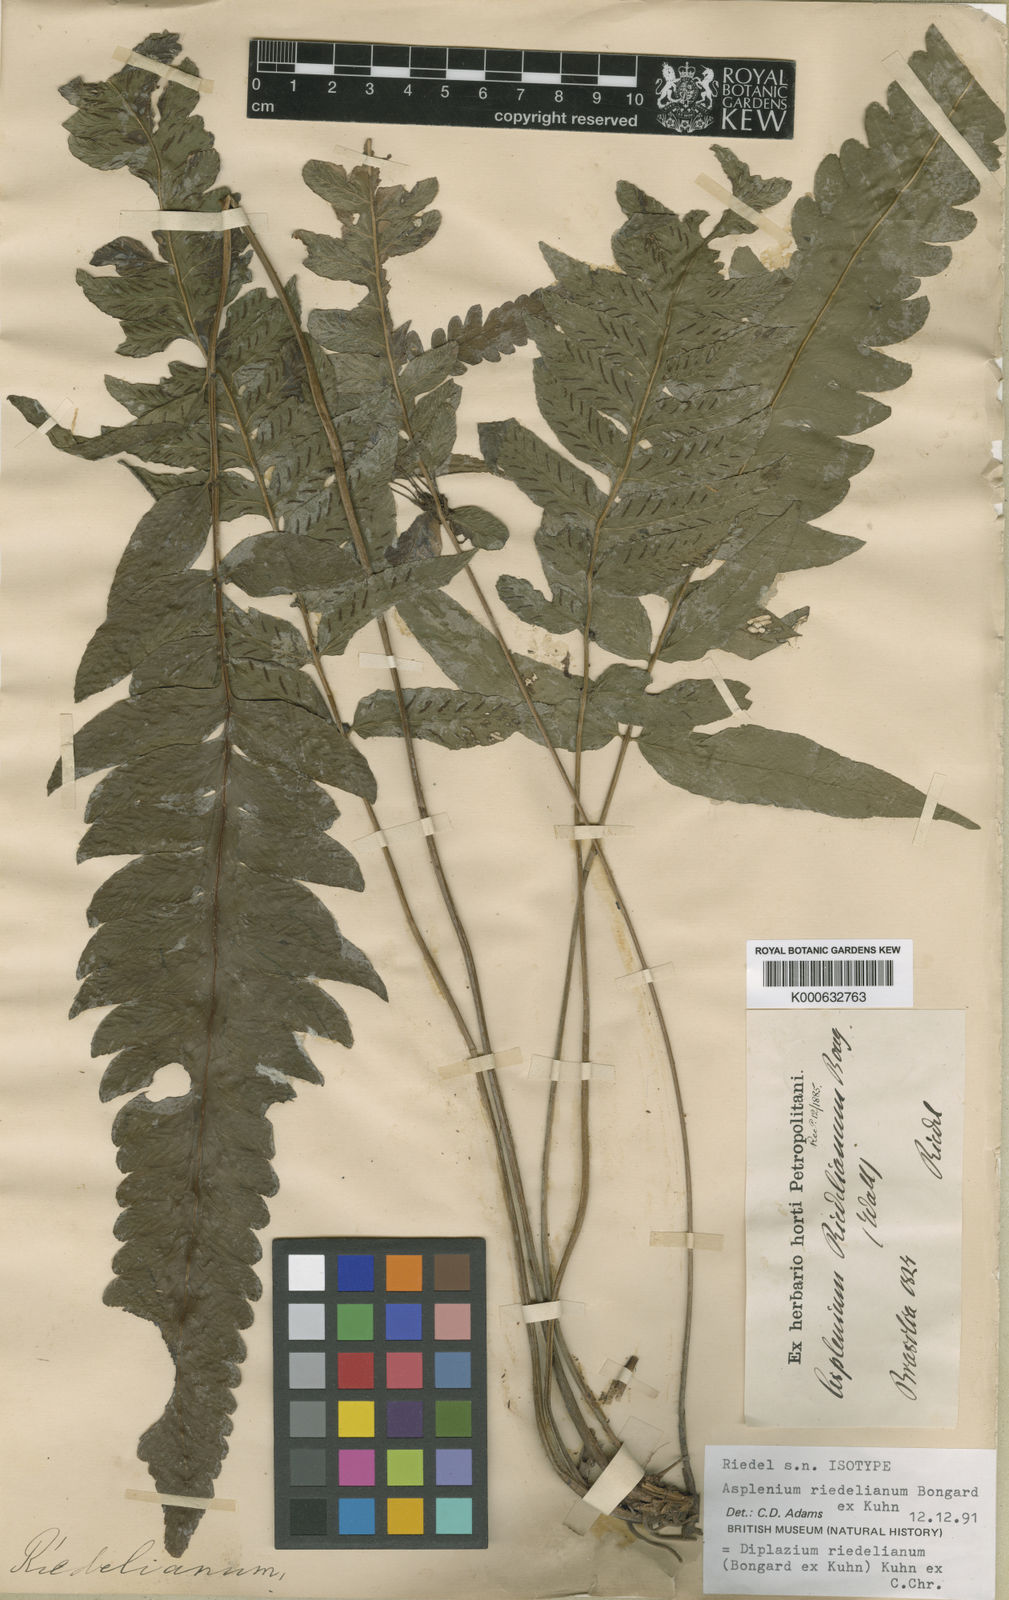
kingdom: Plantae
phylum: Tracheophyta
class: Polypodiopsida
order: Polypodiales
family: Athyriaceae
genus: Diplazium
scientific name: Diplazium riedelianum
